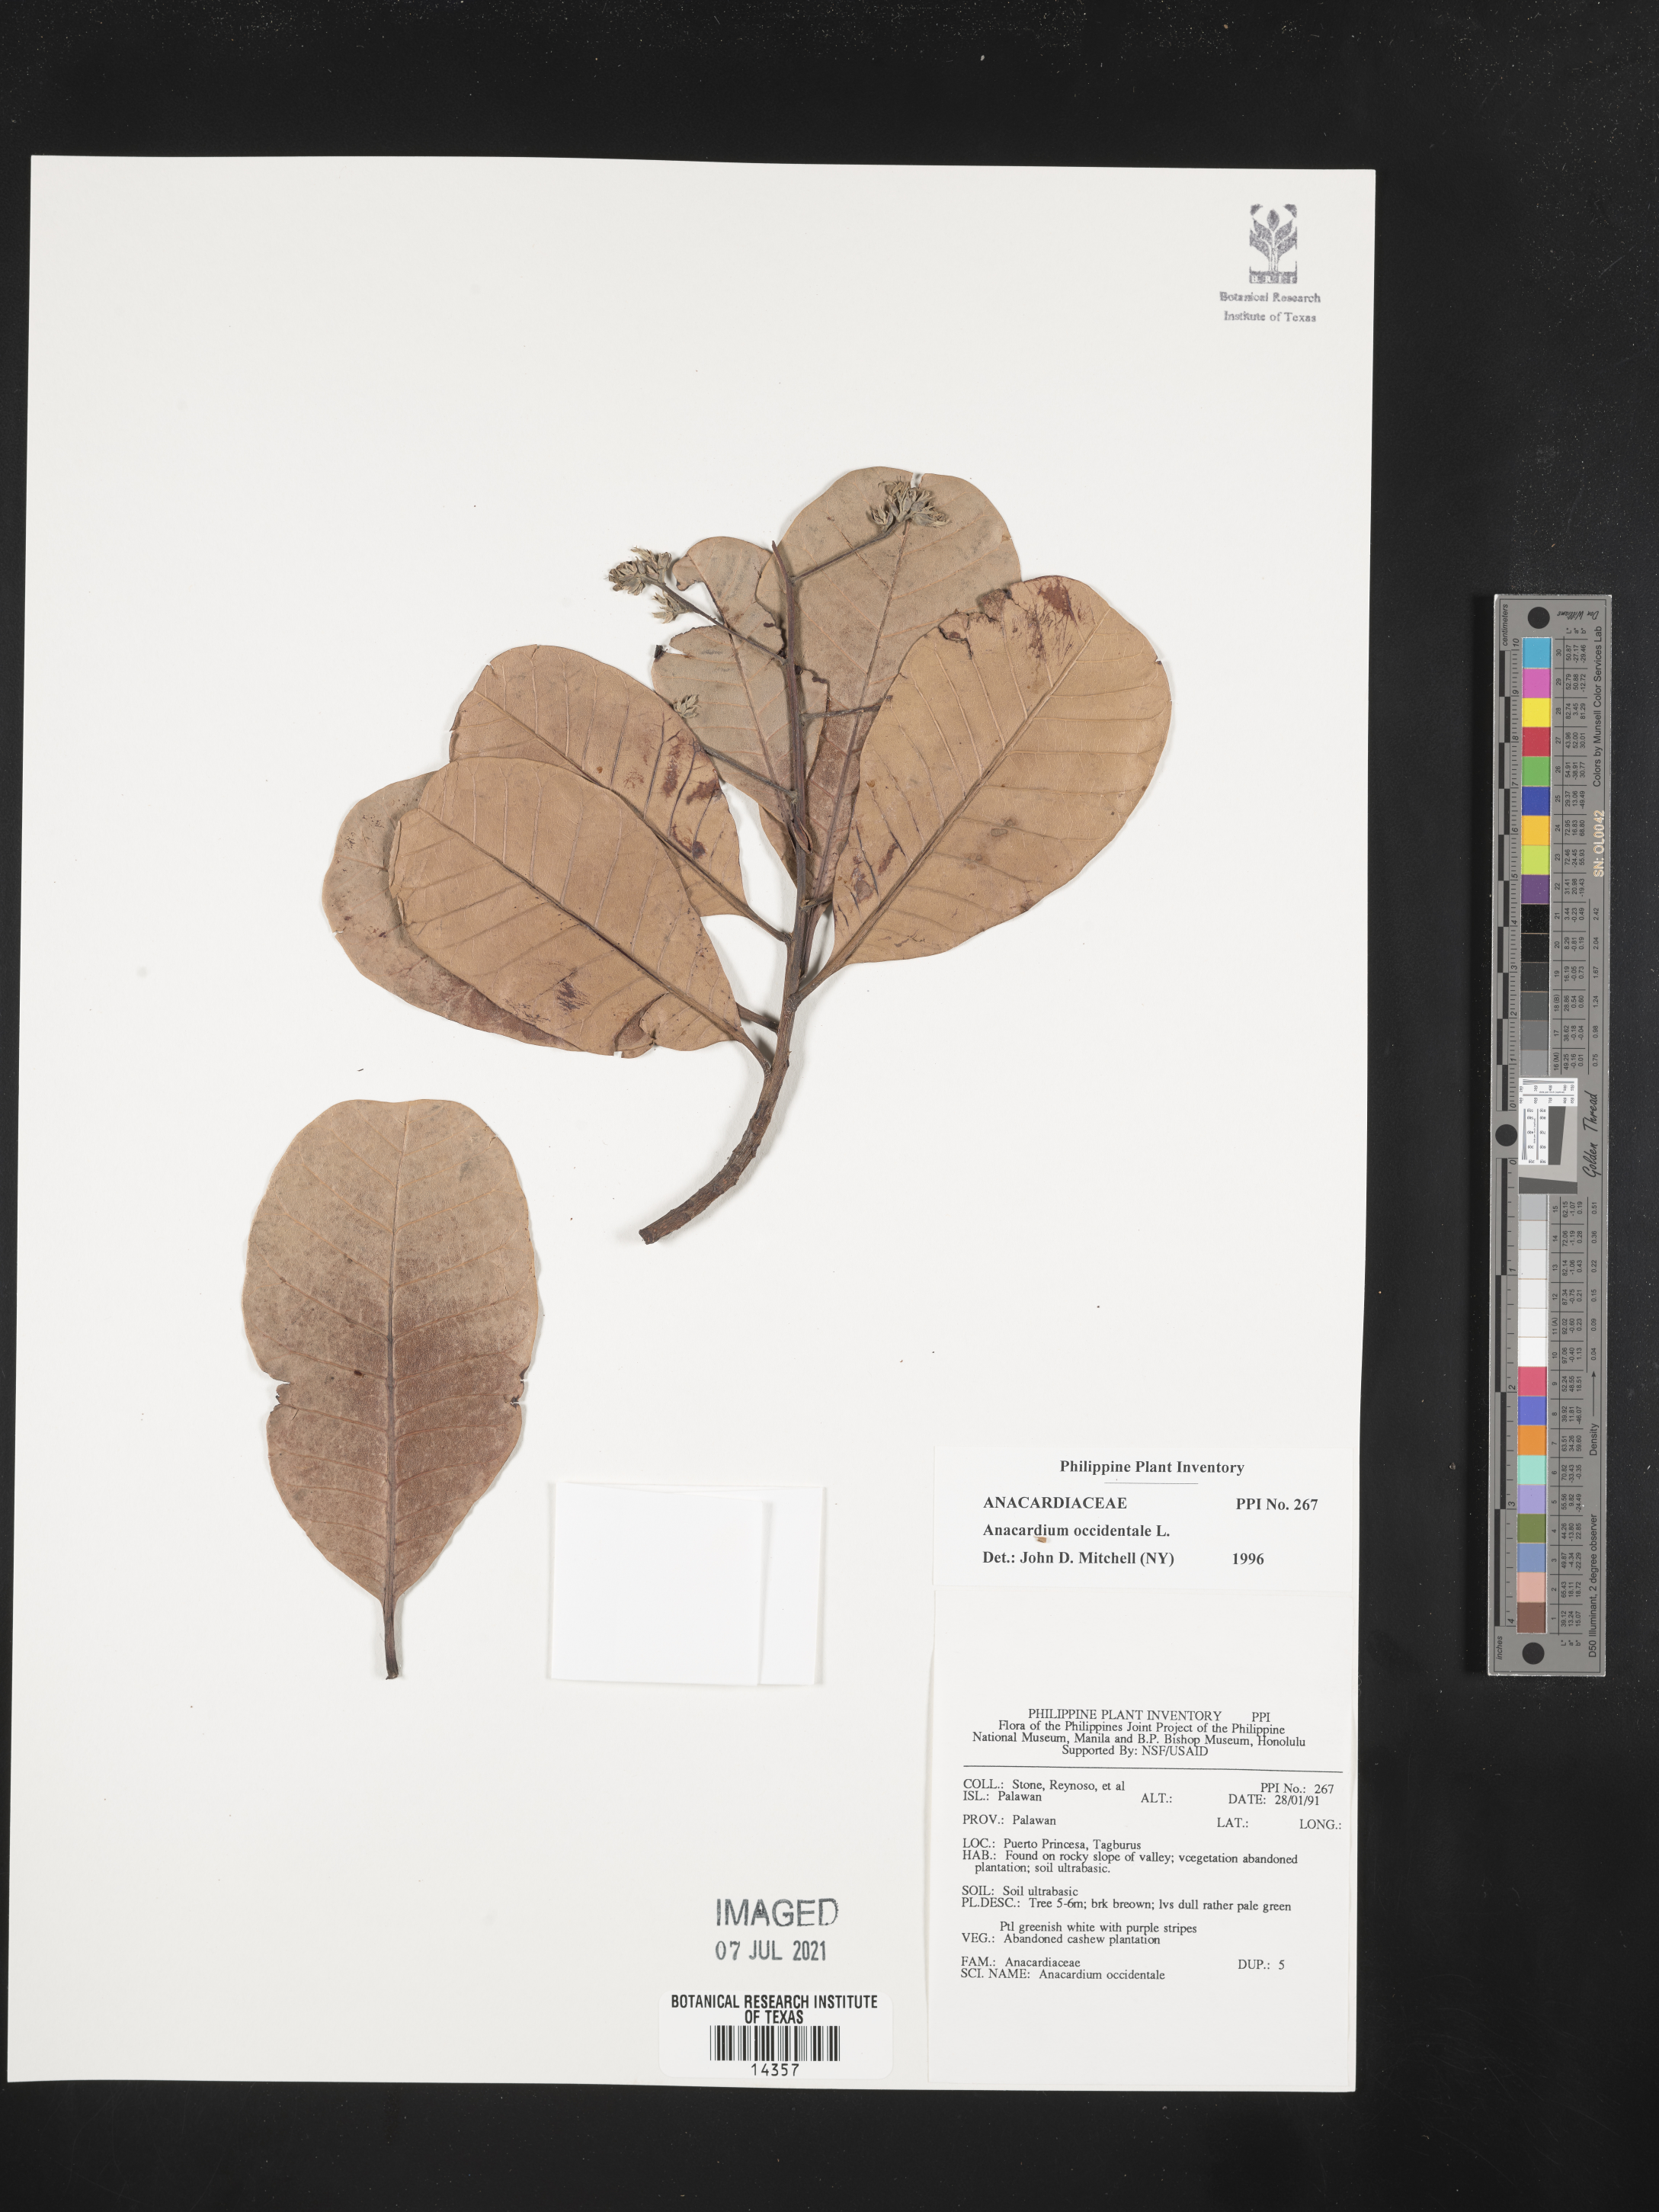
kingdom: Plantae
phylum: Tracheophyta
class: Magnoliopsida
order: Sapindales
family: Anacardiaceae
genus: Anacardium
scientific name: Anacardium occidentale
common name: Cashew
